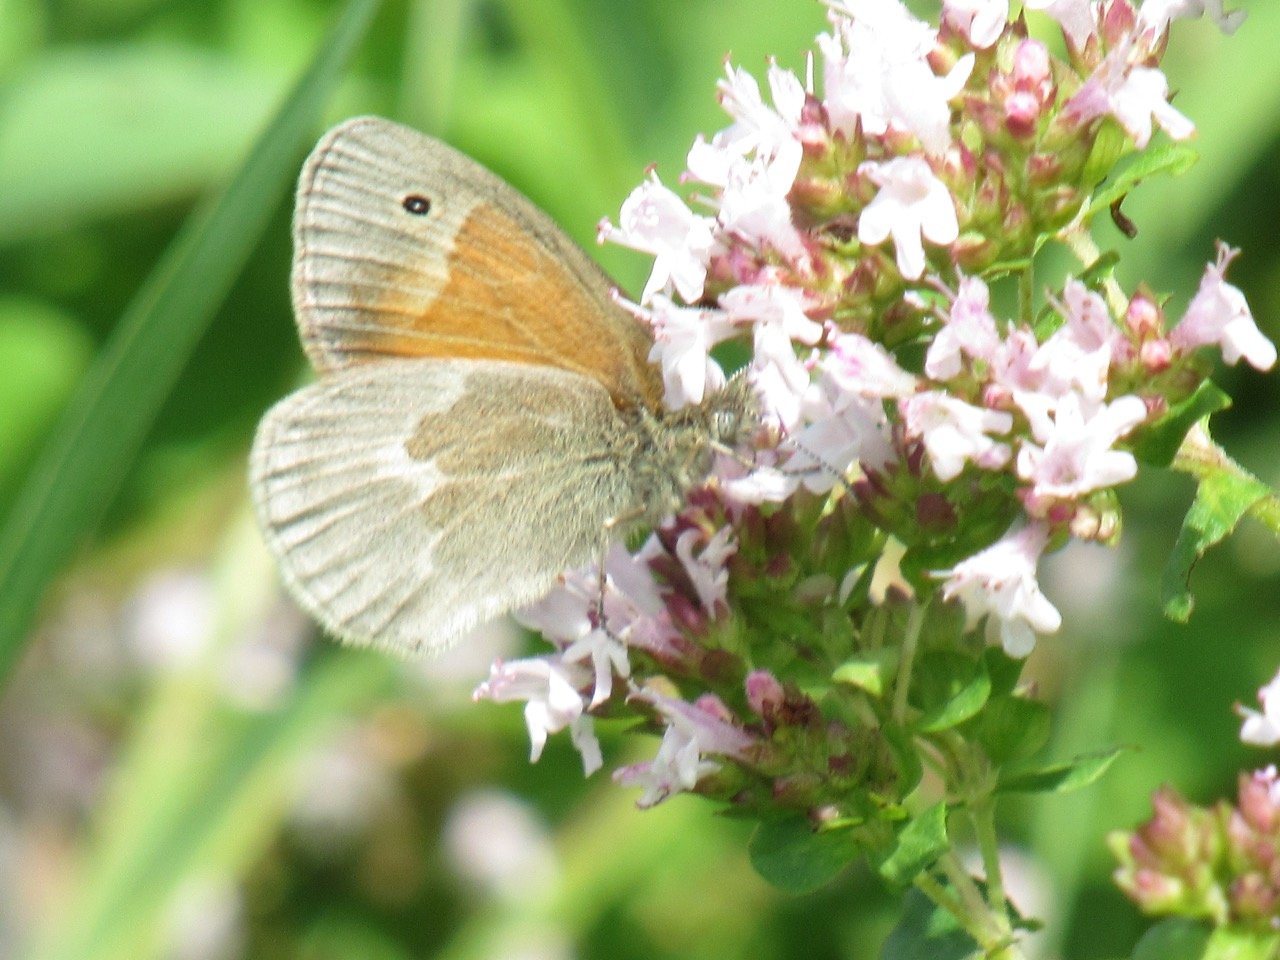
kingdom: Animalia
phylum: Arthropoda
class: Insecta
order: Lepidoptera
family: Nymphalidae
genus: Coenonympha
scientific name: Coenonympha tullia
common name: Large Heath
